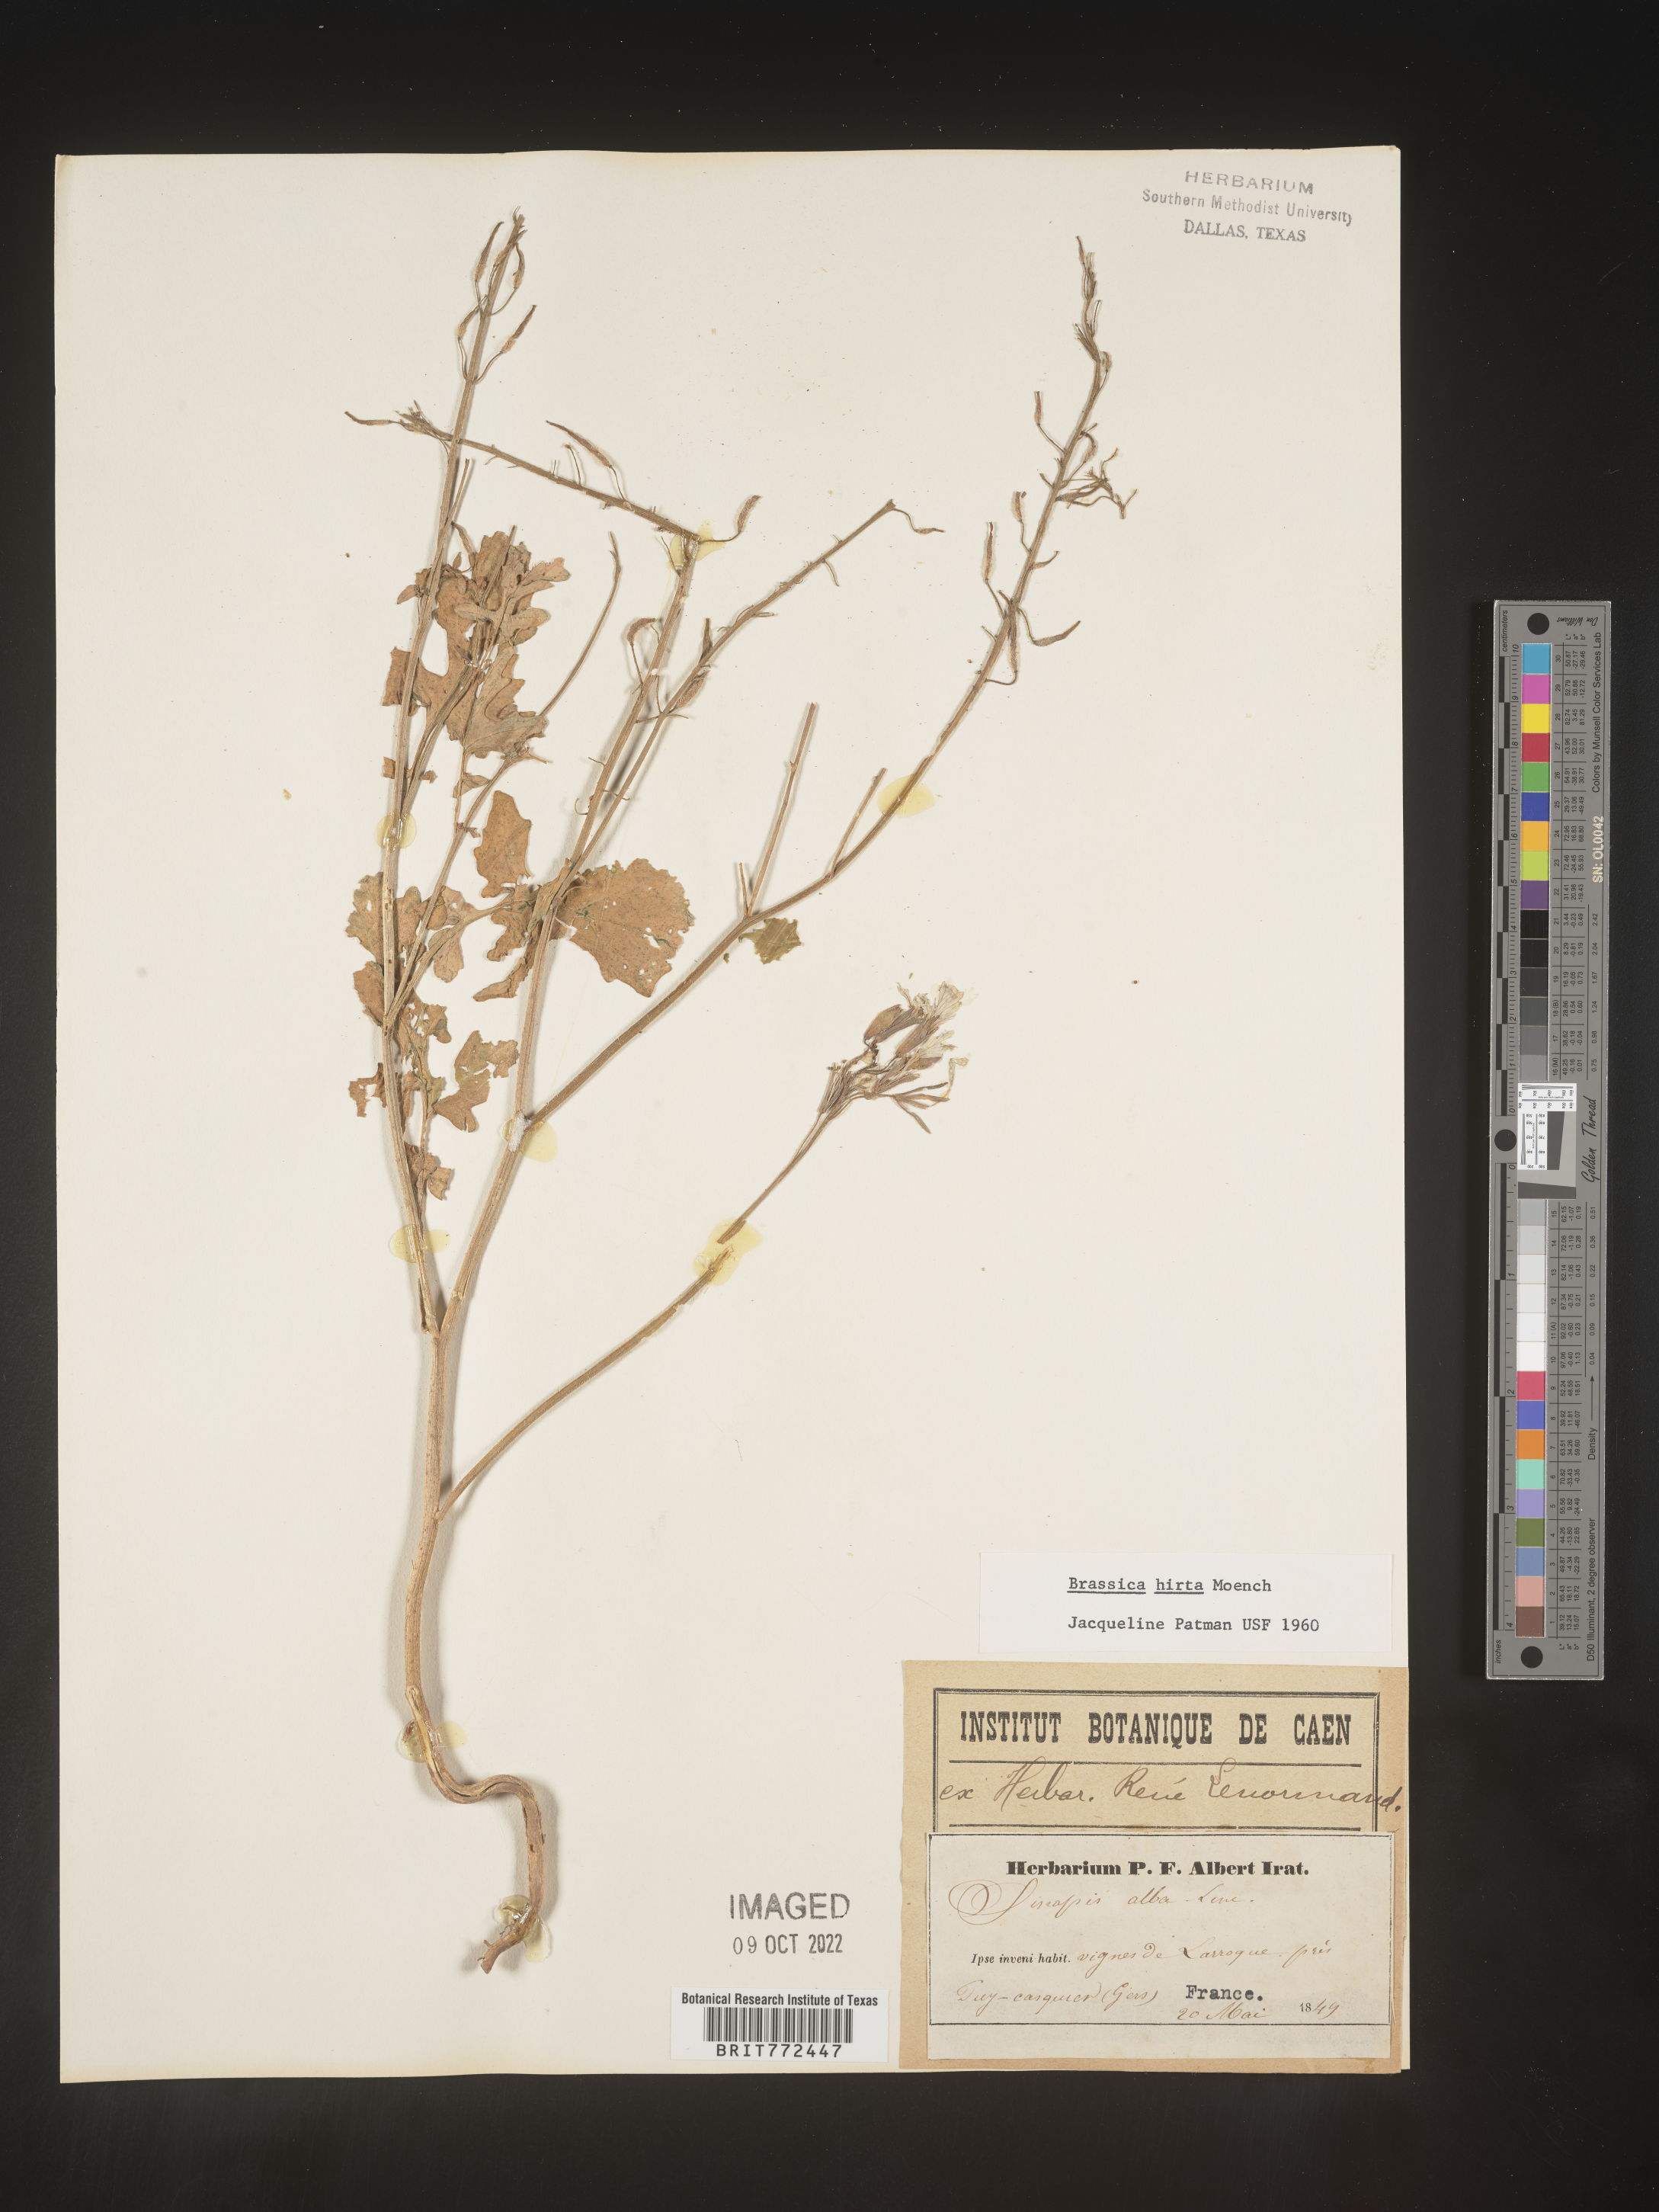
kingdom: Plantae
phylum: Tracheophyta
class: Magnoliopsida
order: Brassicales
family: Brassicaceae
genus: Brassica
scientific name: Brassica
